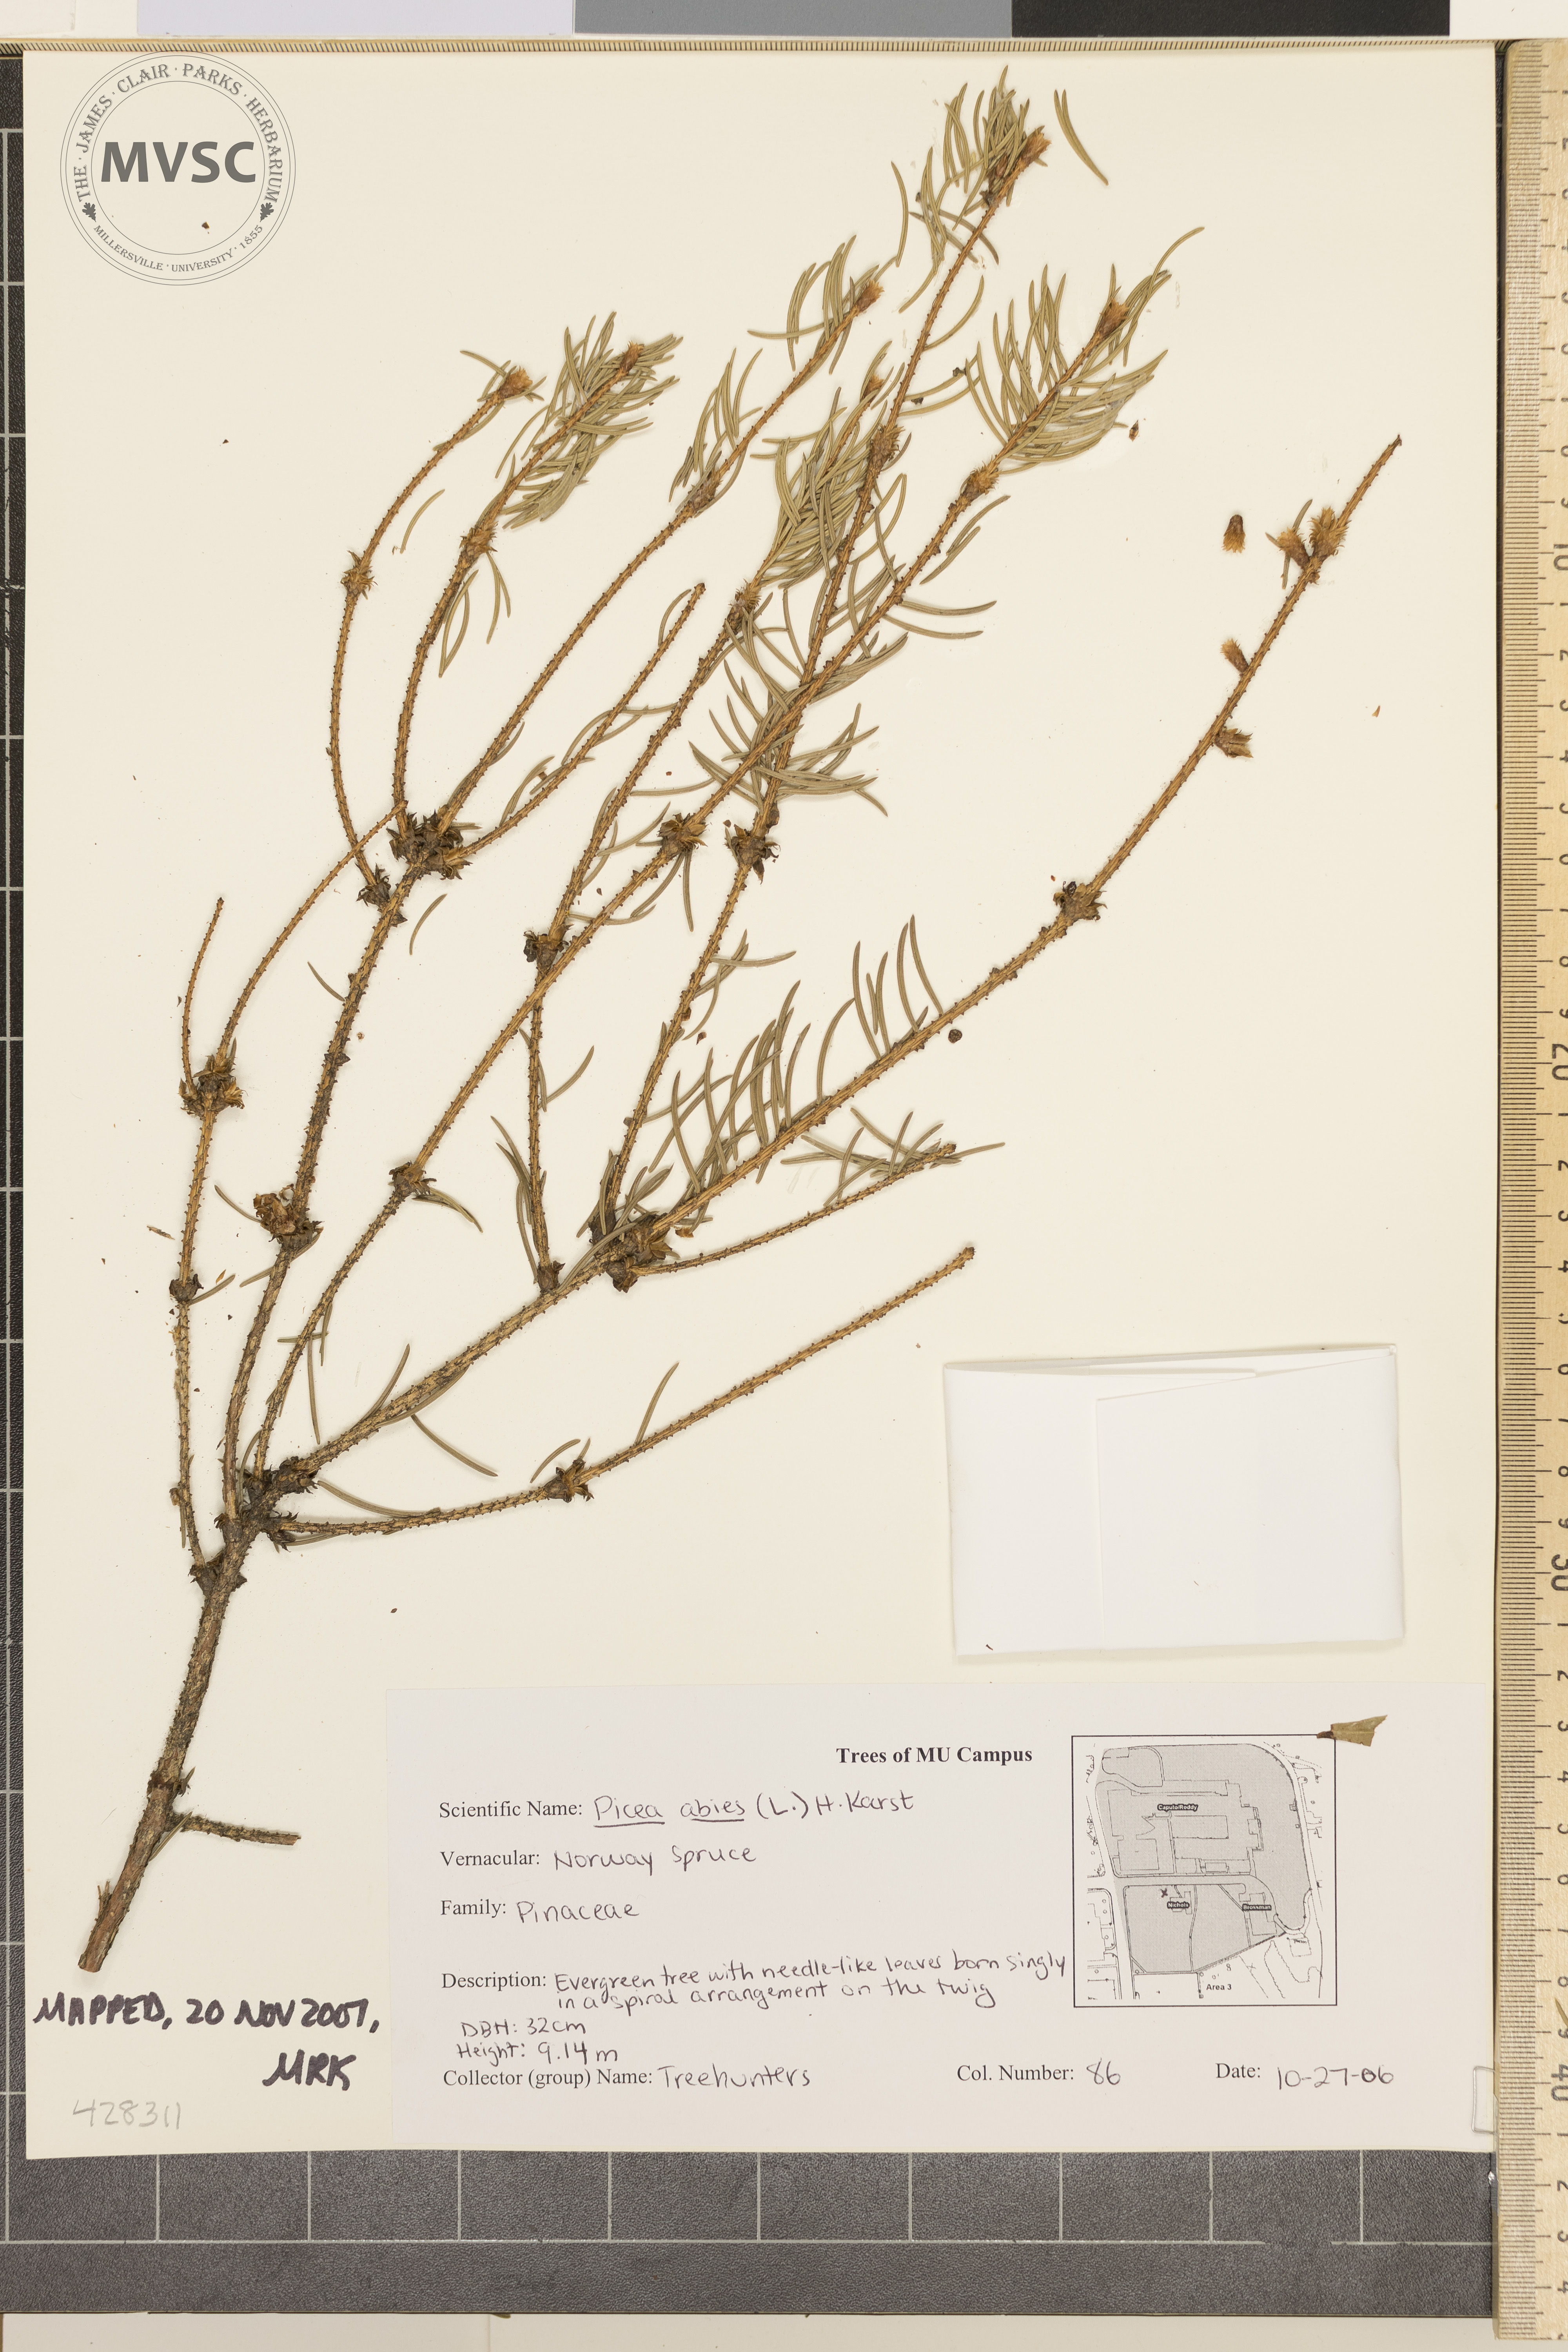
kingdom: Plantae
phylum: Tracheophyta
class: Pinopsida
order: Pinales
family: Pinaceae
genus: Picea
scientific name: Picea abies
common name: Norway Spruce
